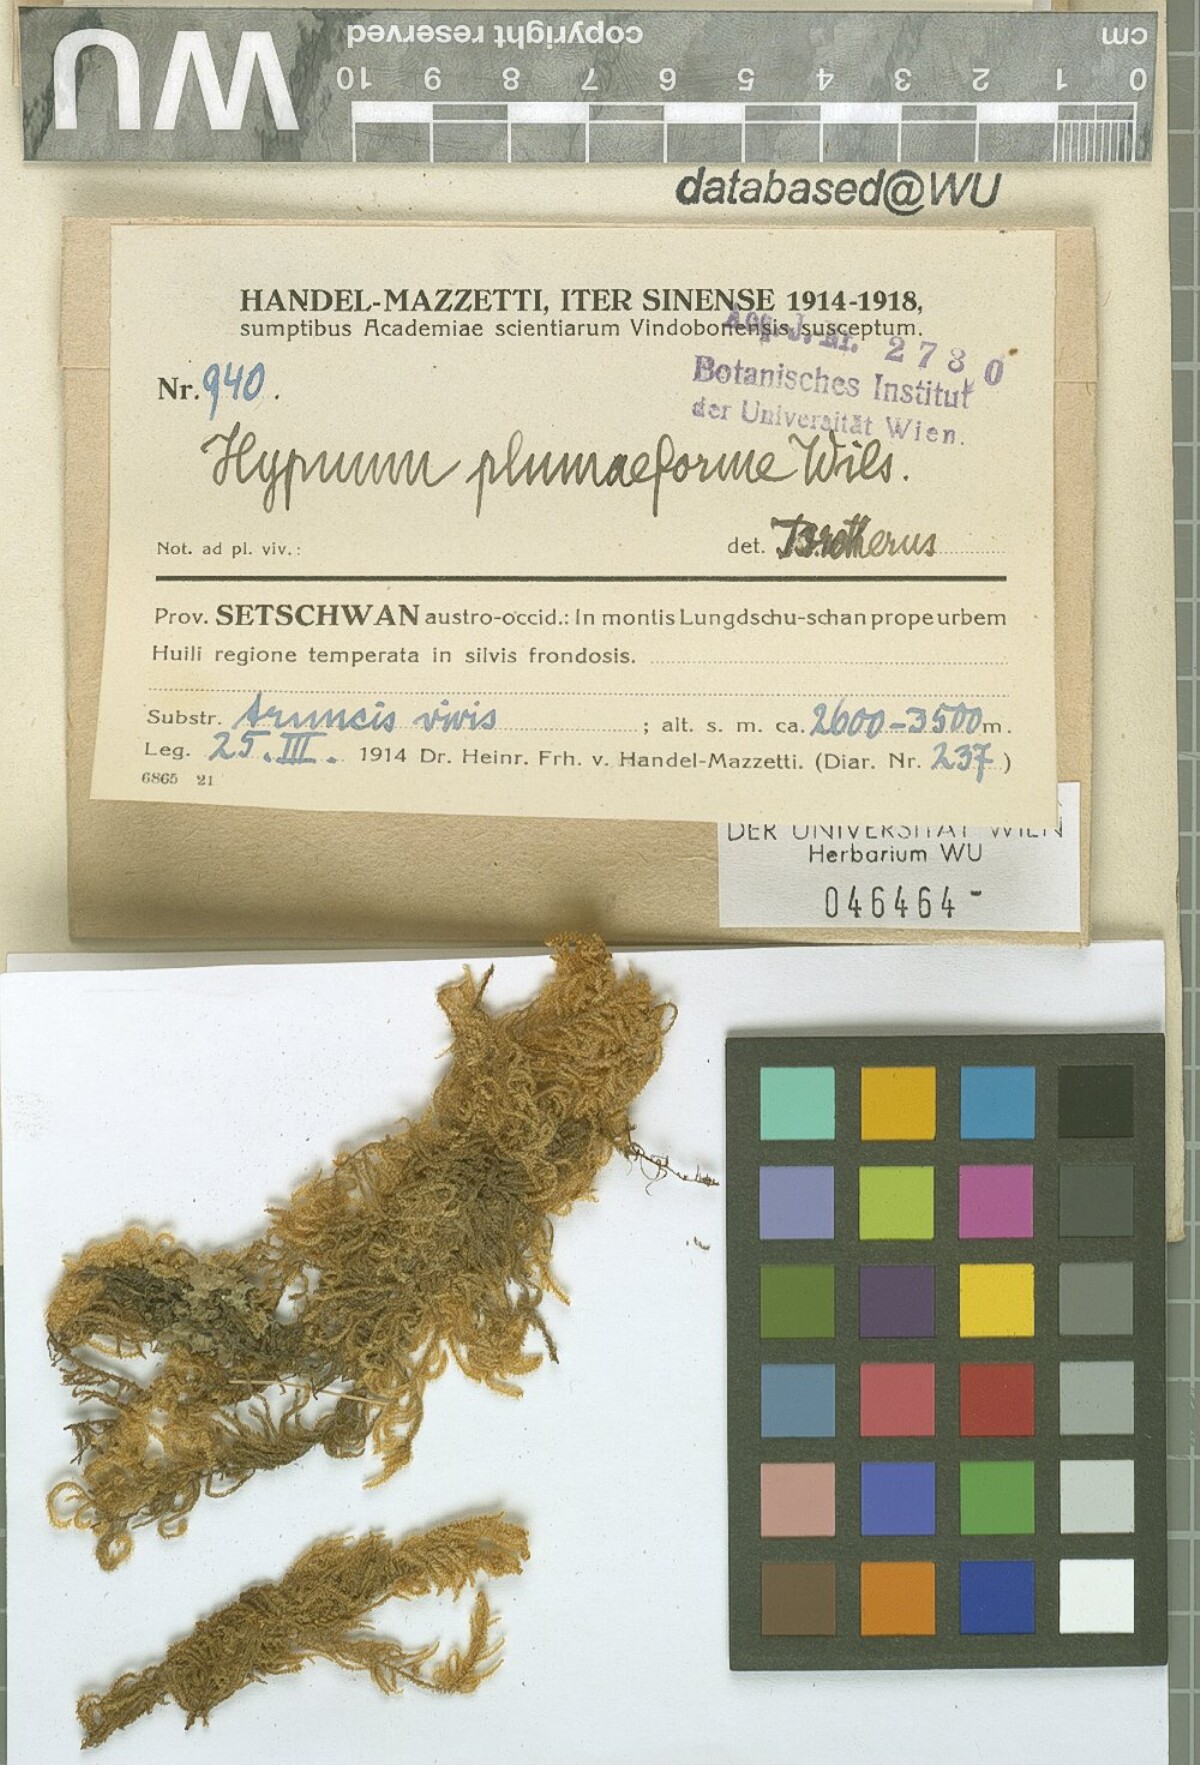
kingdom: Plantae
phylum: Bryophyta
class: Bryopsida
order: Hypnales
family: Hypnaceae
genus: Hypnum
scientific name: Hypnum plumaeforme
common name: Cypress-leaved plaitmoss
